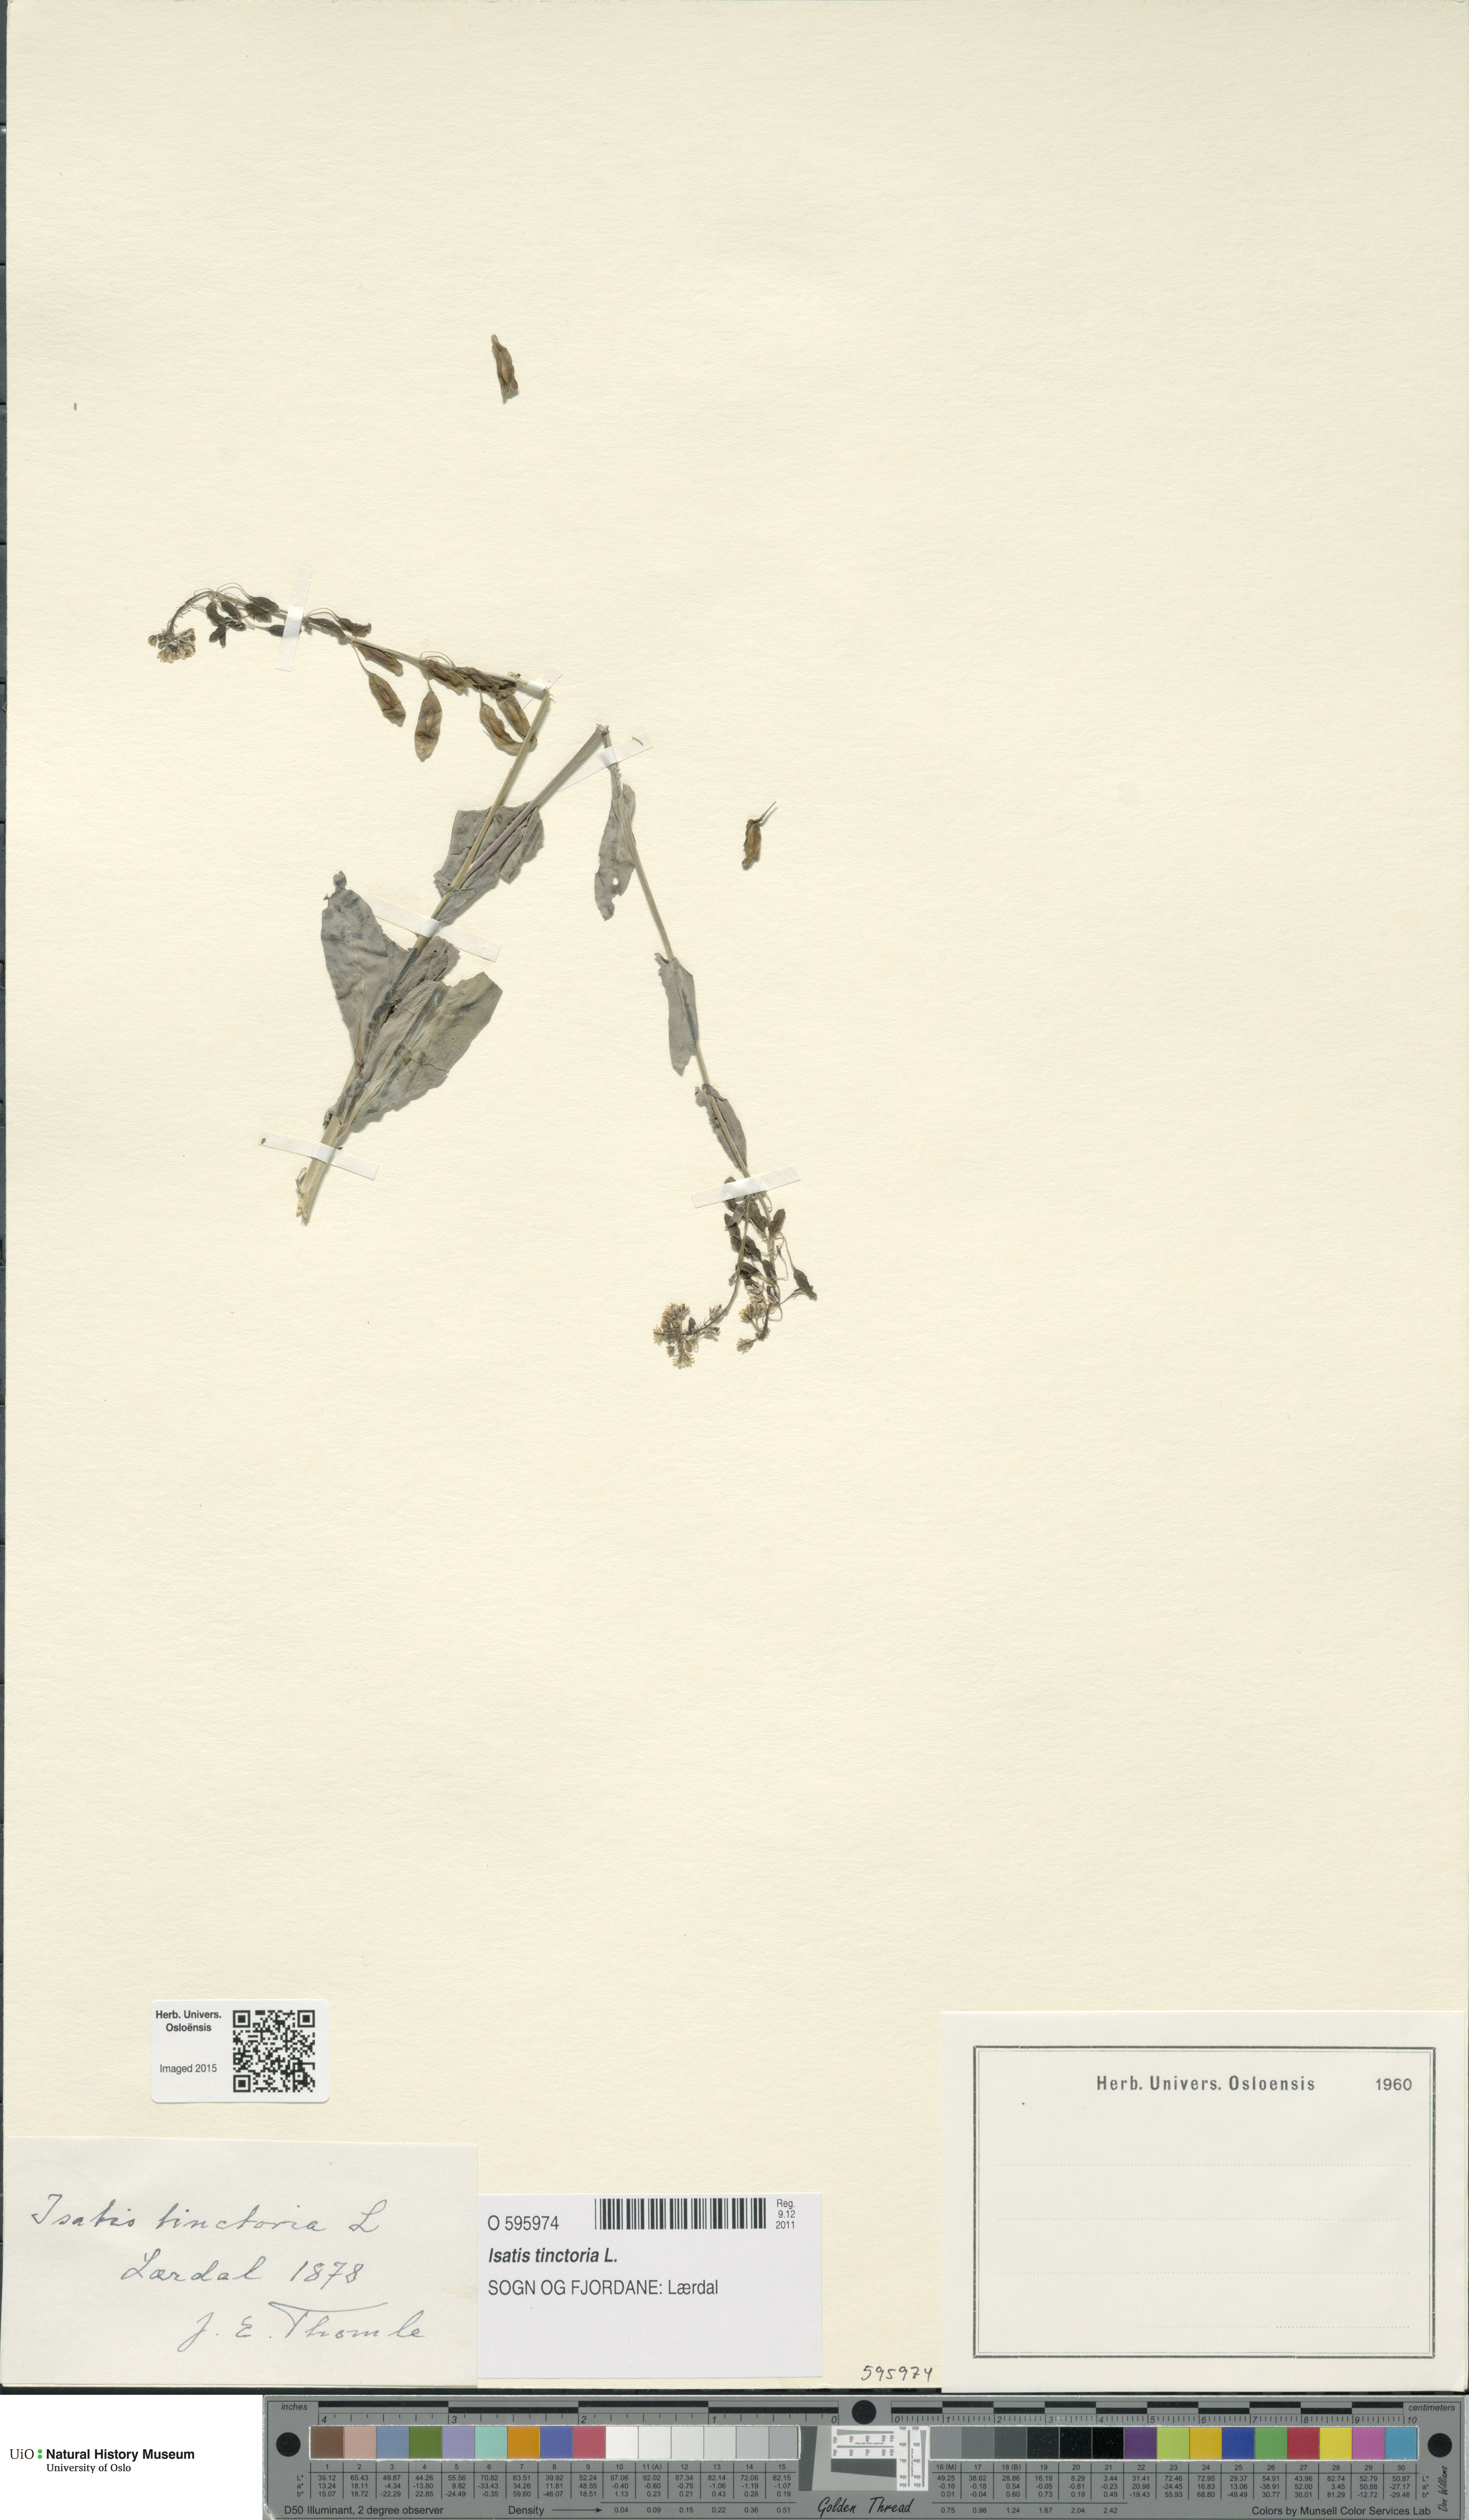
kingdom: Plantae
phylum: Tracheophyta
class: Magnoliopsida
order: Brassicales
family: Brassicaceae
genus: Isatis
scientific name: Isatis tinctoria
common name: Woad
